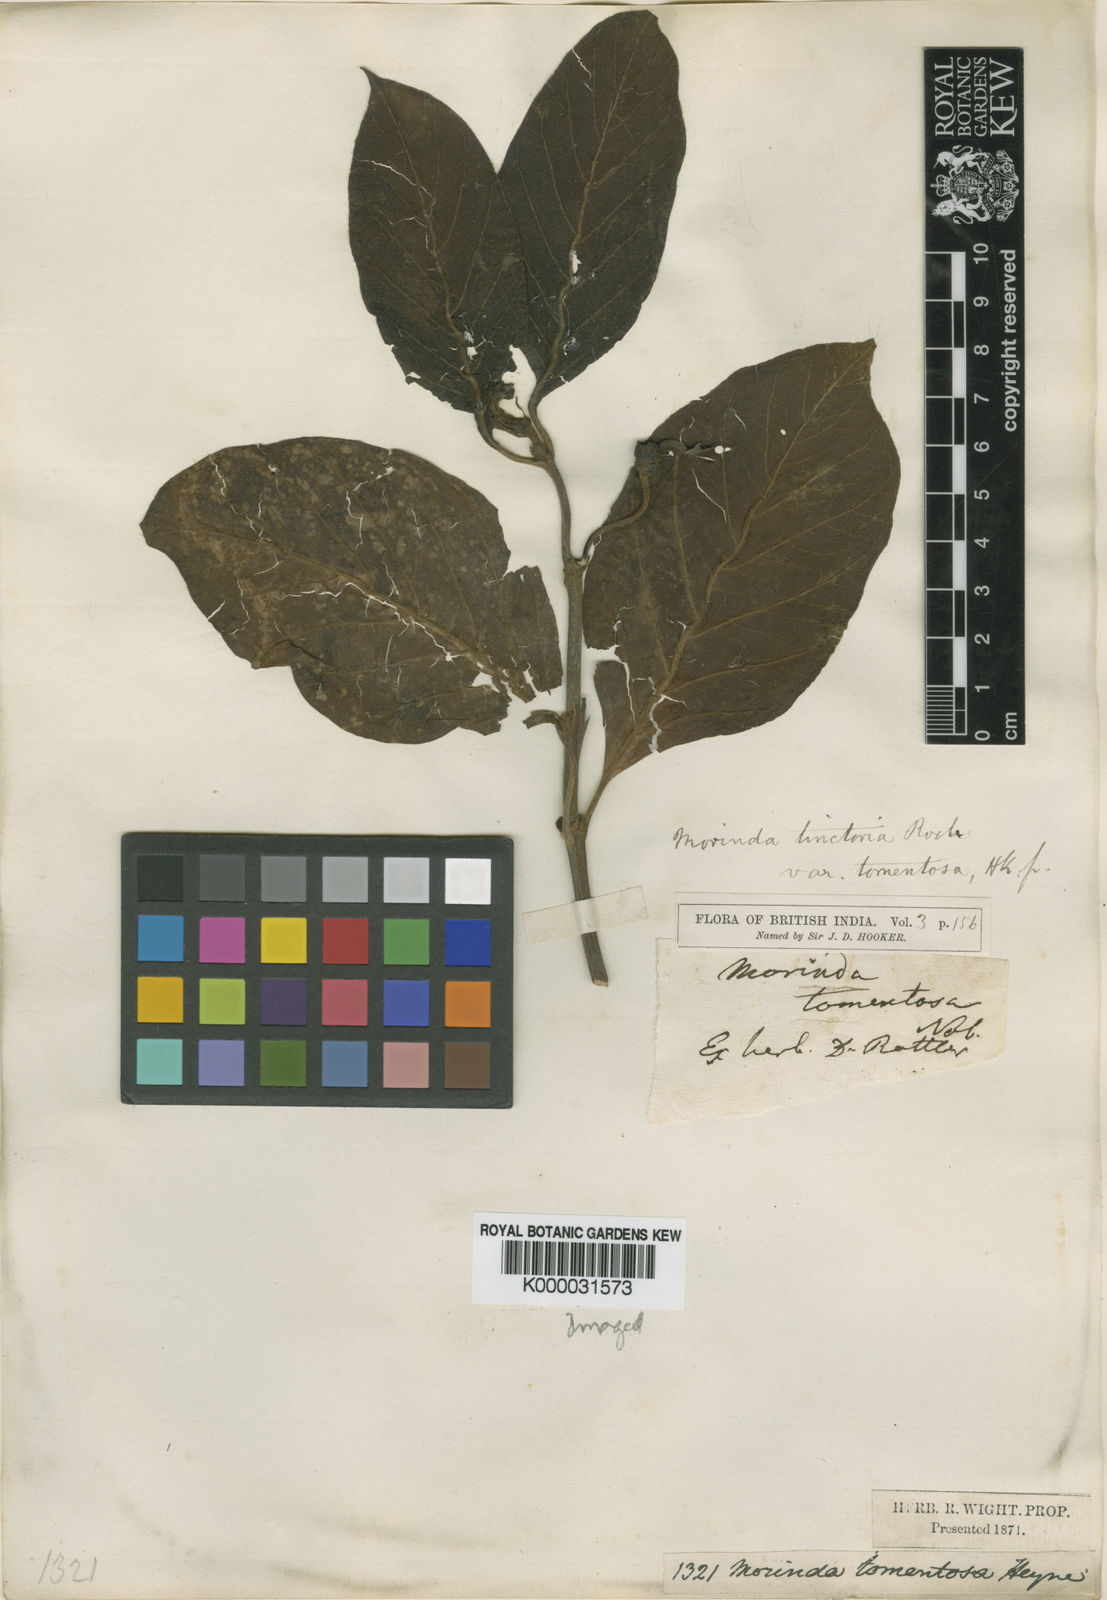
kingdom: Plantae
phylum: Tracheophyta
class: Magnoliopsida
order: Gentianales
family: Rubiaceae
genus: Morinda
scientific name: Morinda coreia
